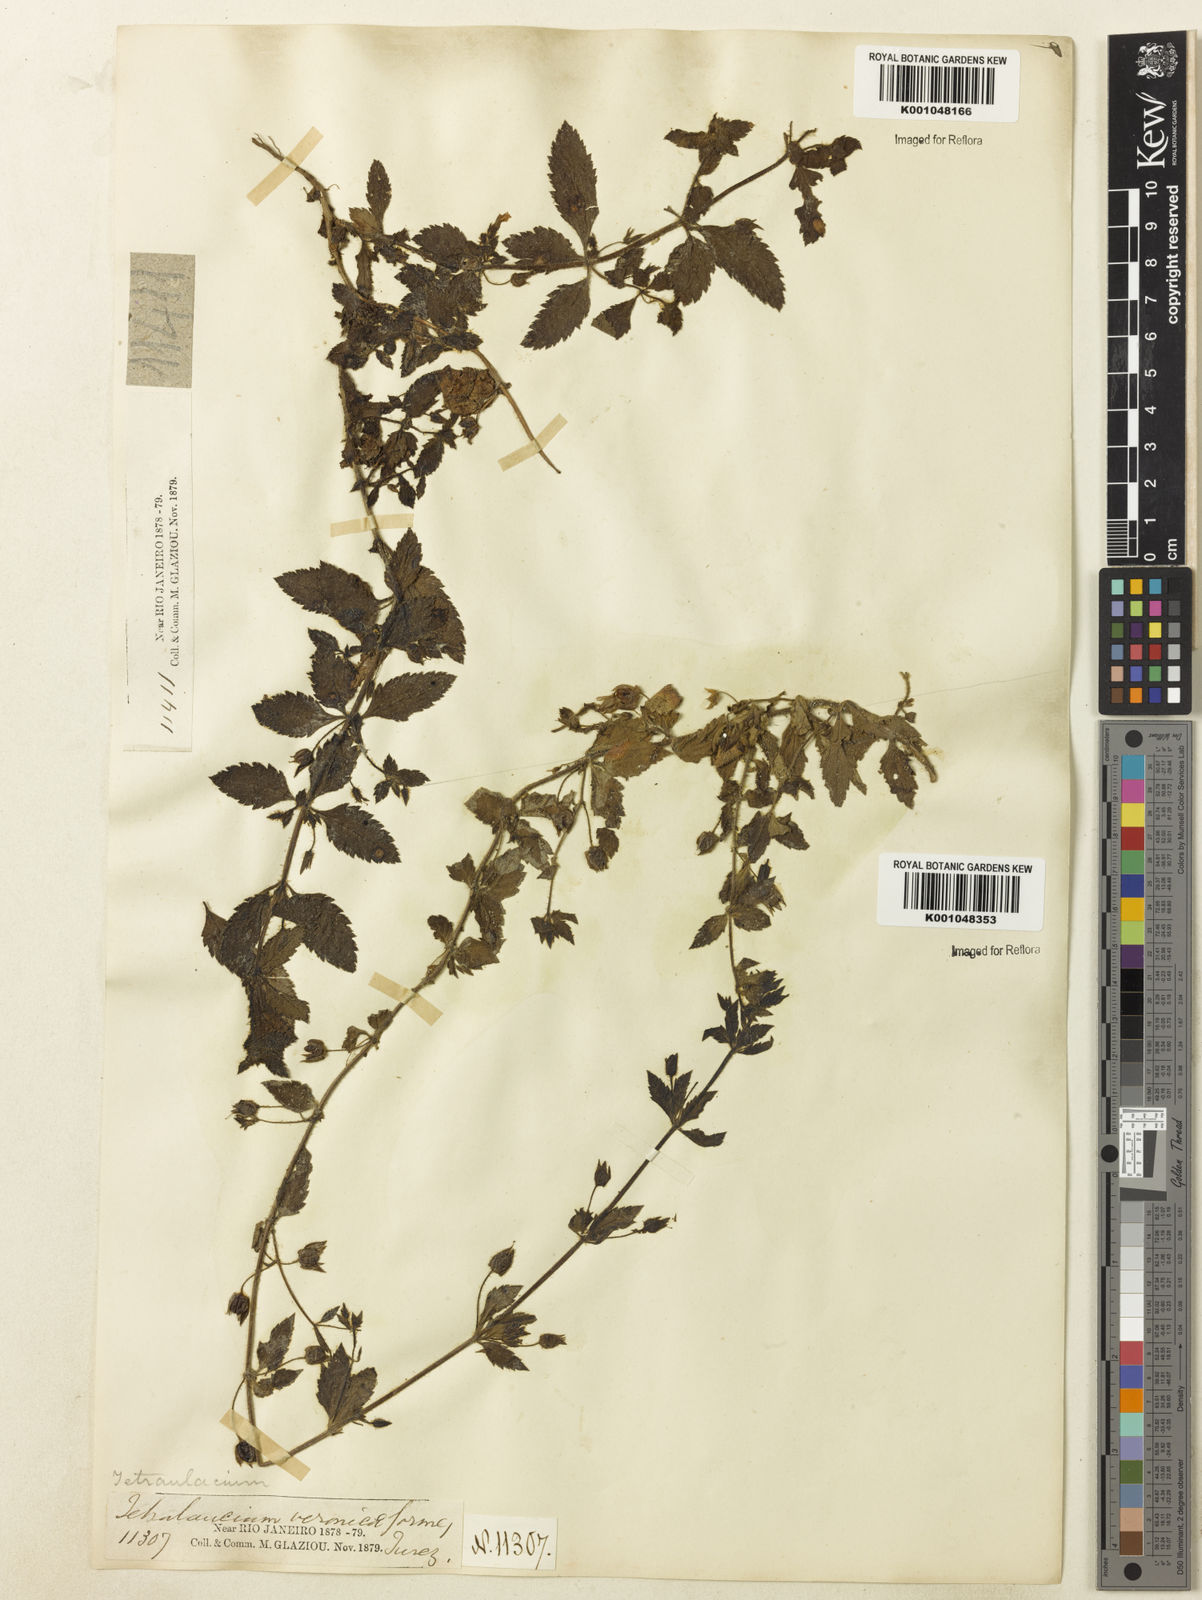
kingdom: Plantae
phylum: Tracheophyta
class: Magnoliopsida
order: Lamiales
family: Plantaginaceae
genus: Tetraulacium
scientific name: Tetraulacium veroniciforme
